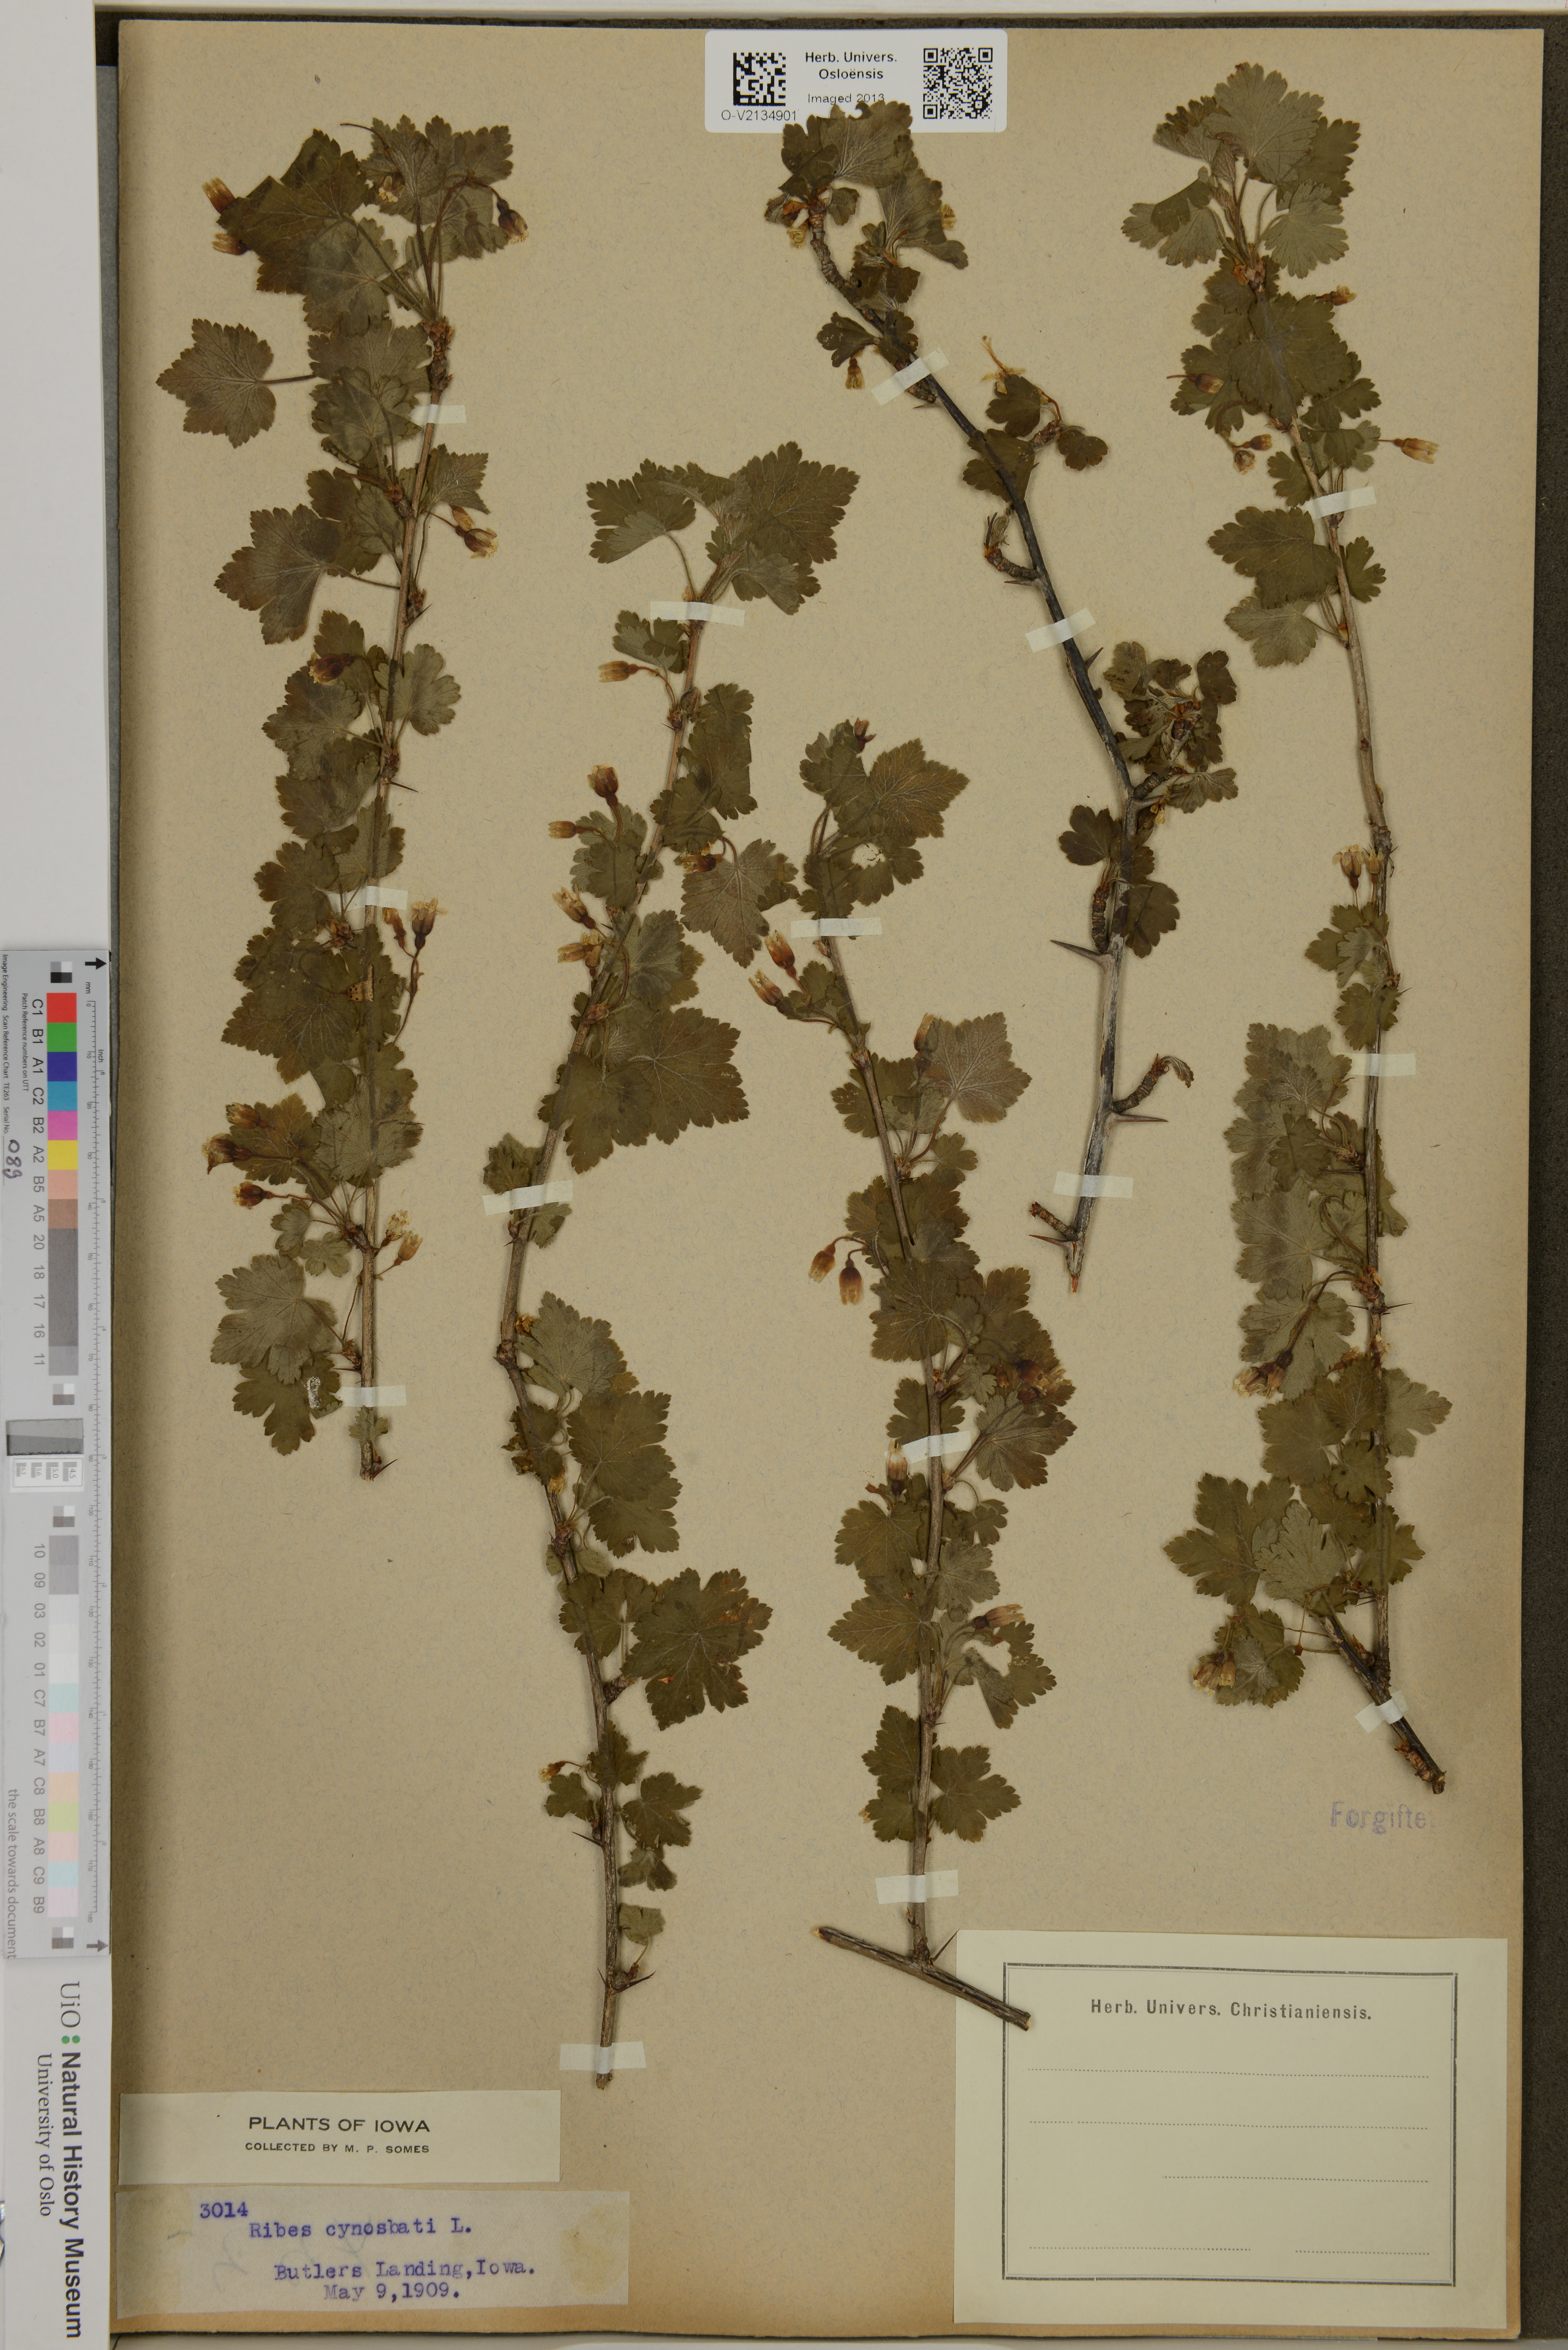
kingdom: Plantae
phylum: Tracheophyta
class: Magnoliopsida
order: Saxifragales
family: Grossulariaceae
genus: Ribes
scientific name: Ribes cynosbati
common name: American gooseberry
